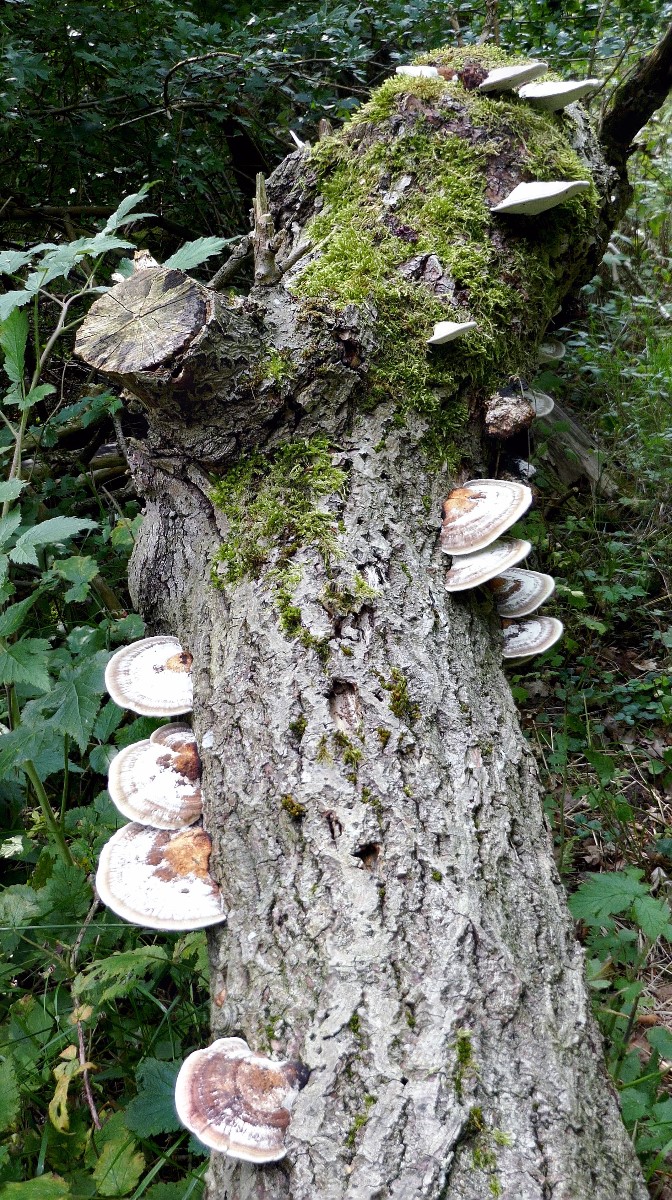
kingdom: Fungi
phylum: Basidiomycota
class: Agaricomycetes
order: Polyporales
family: Polyporaceae
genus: Daedaleopsis
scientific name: Daedaleopsis confragosa
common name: rødmende læderporesvamp
